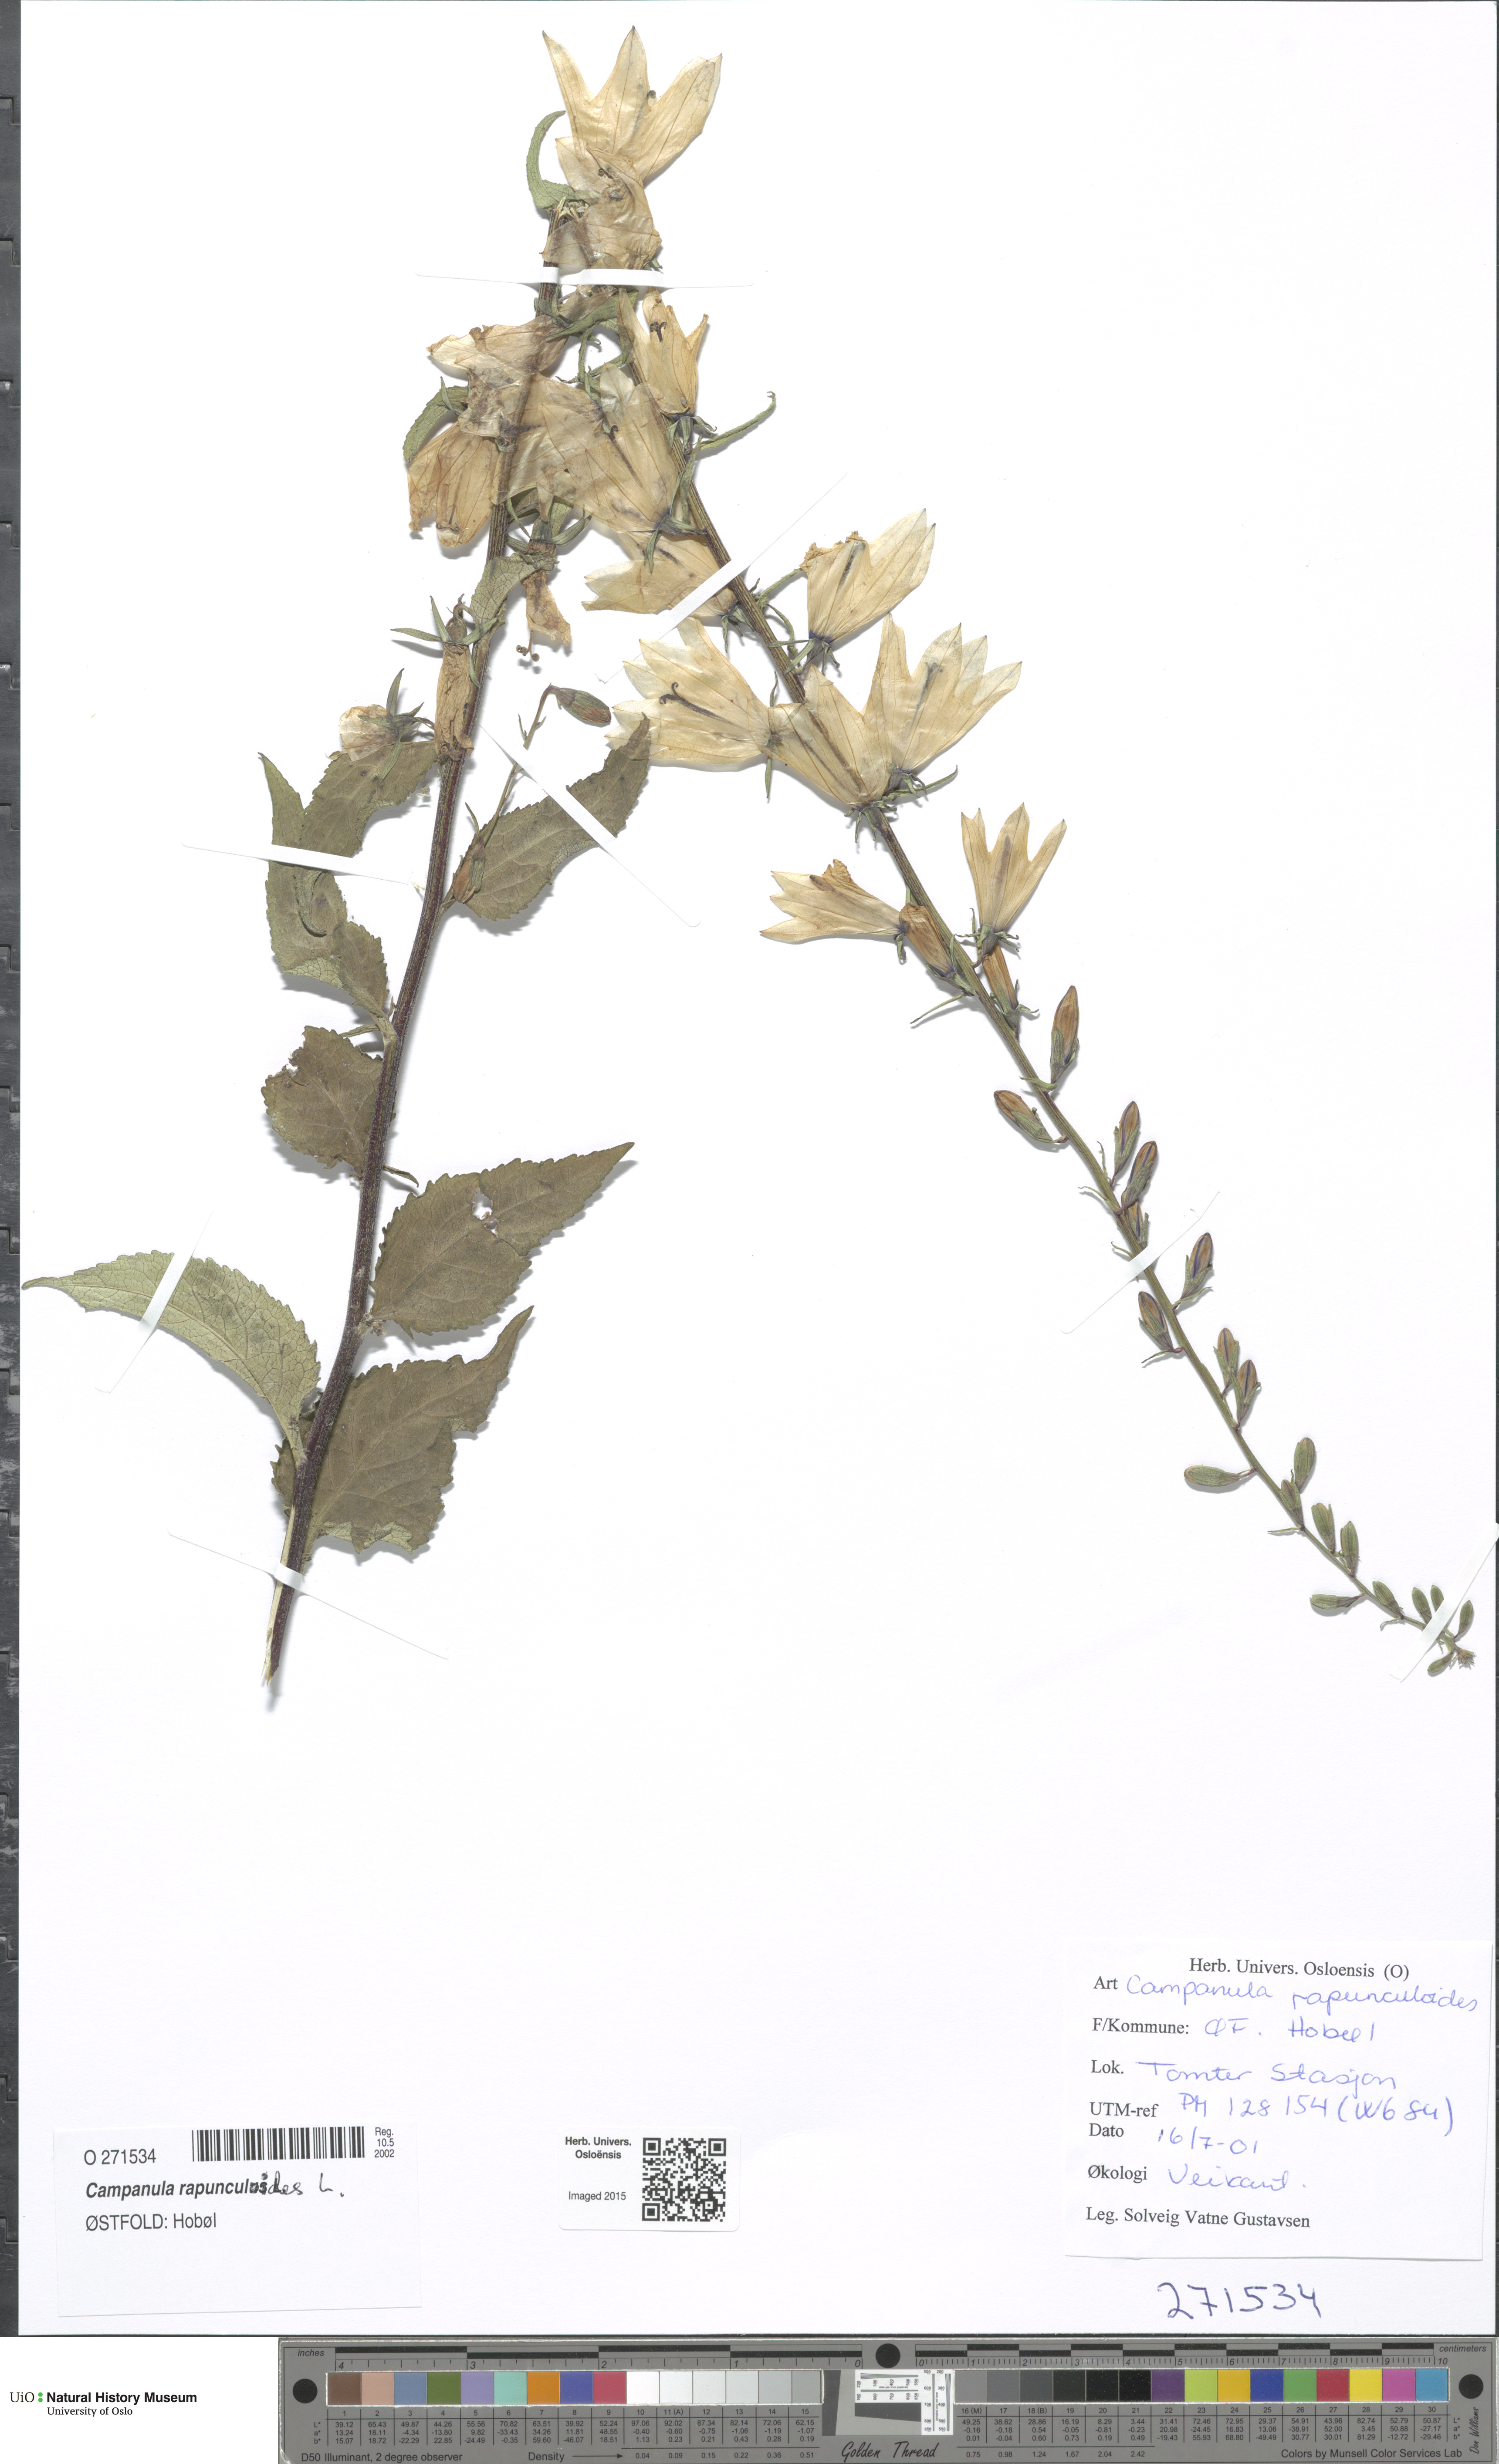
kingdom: Plantae
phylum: Tracheophyta
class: Magnoliopsida
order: Asterales
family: Campanulaceae
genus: Campanula
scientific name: Campanula rapunculoides
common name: Creeping bellflower
